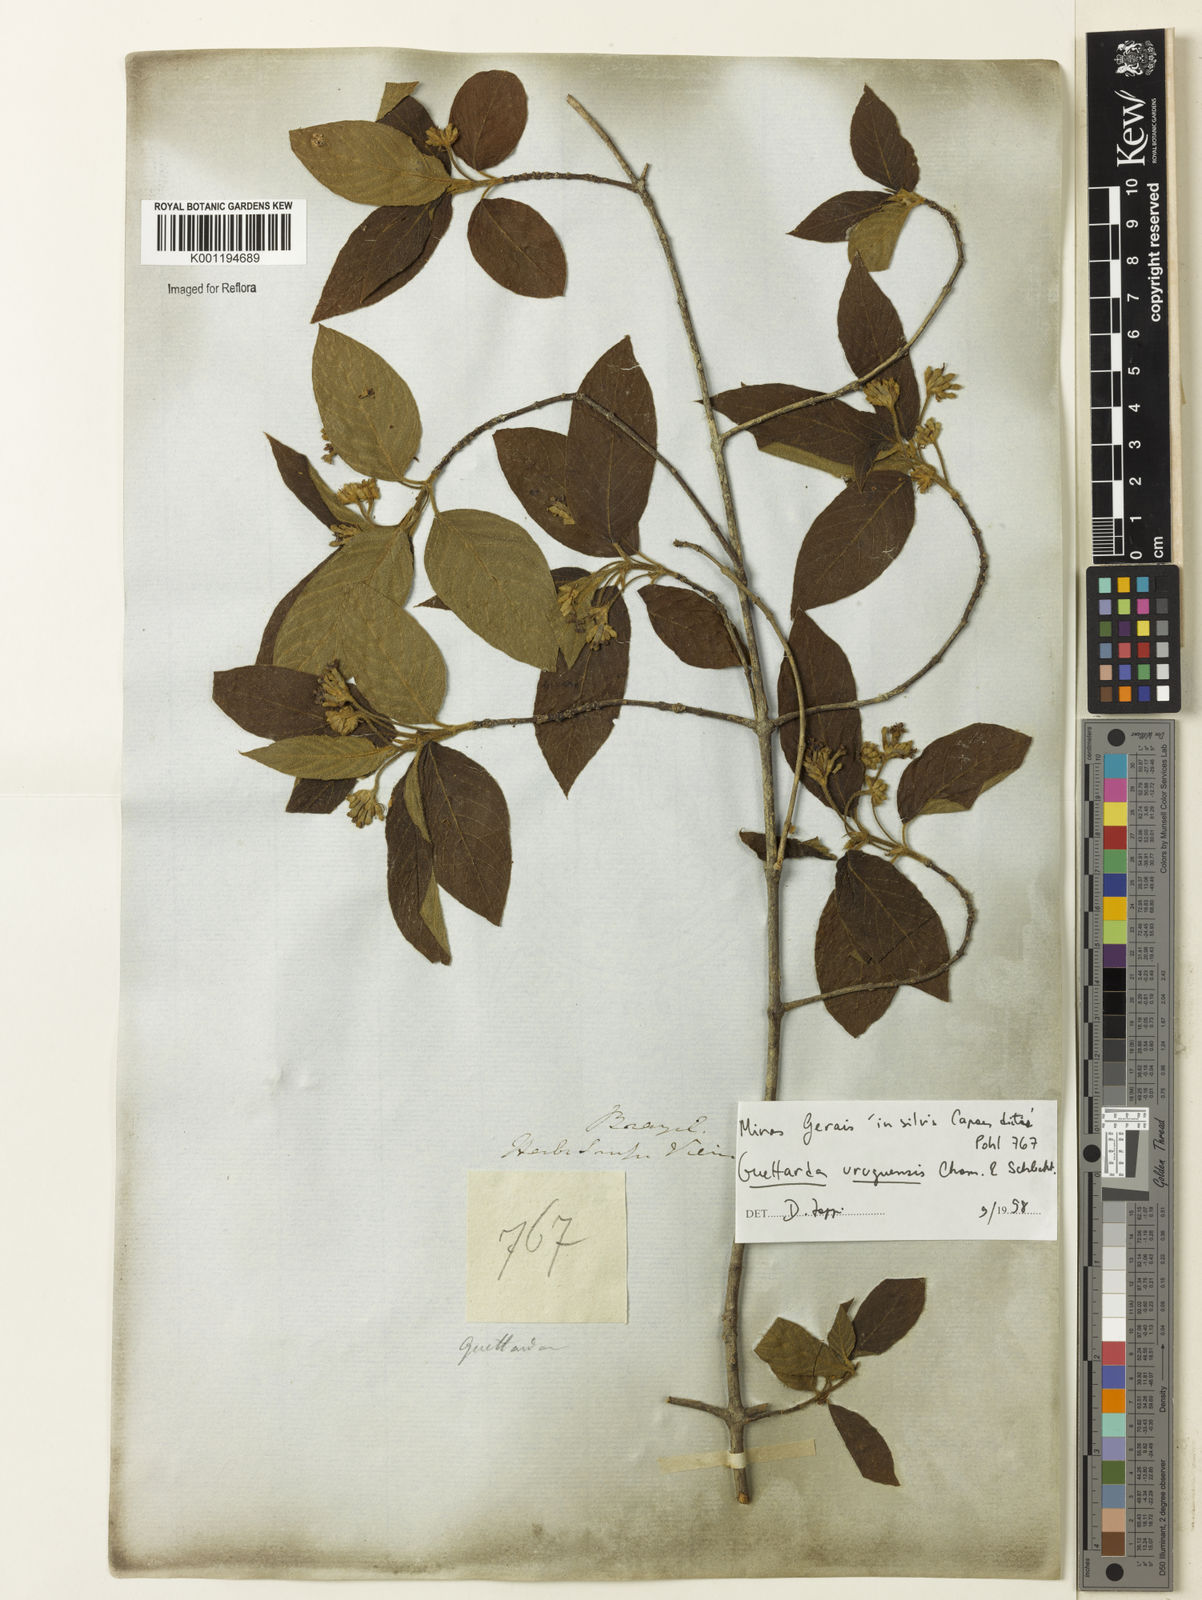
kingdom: Plantae
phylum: Tracheophyta
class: Magnoliopsida
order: Gentianales
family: Rubiaceae
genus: Guettarda
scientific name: Guettarda uruguensis
